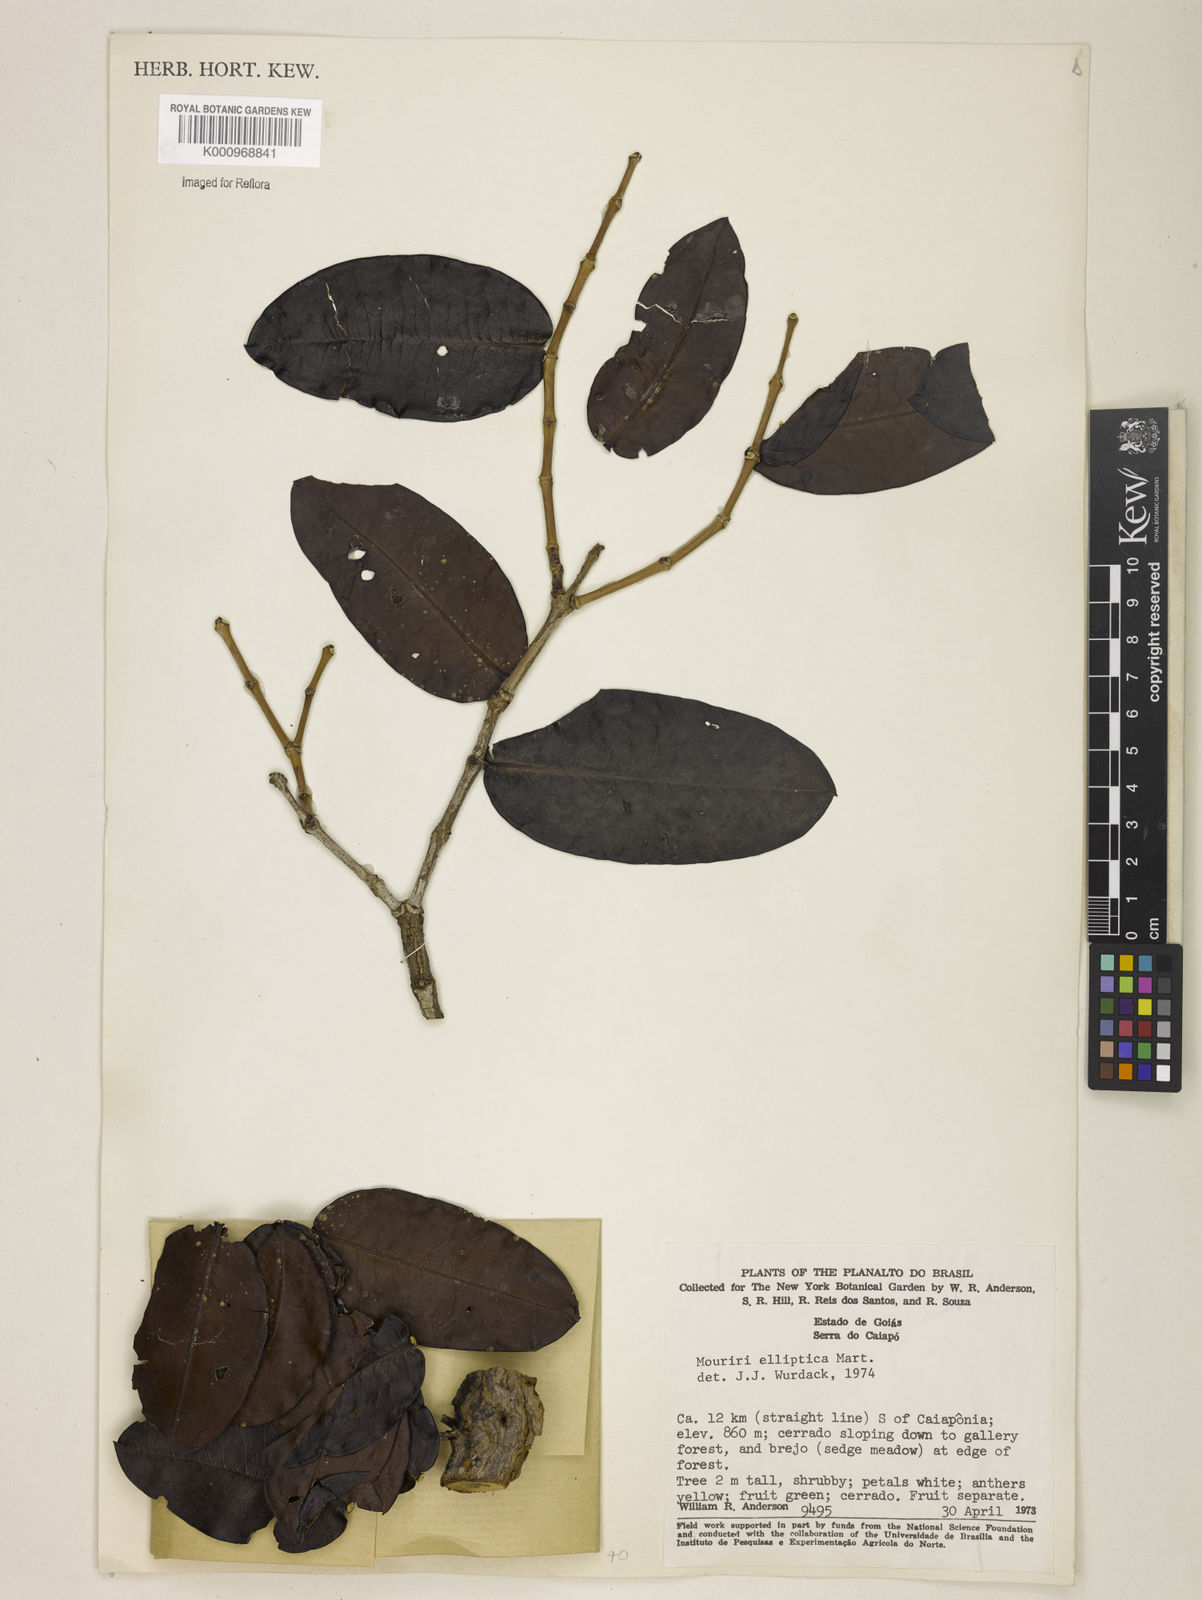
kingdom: Plantae
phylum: Tracheophyta
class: Magnoliopsida
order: Myrtales
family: Melastomataceae
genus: Mouriri
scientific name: Mouriri elliptica
